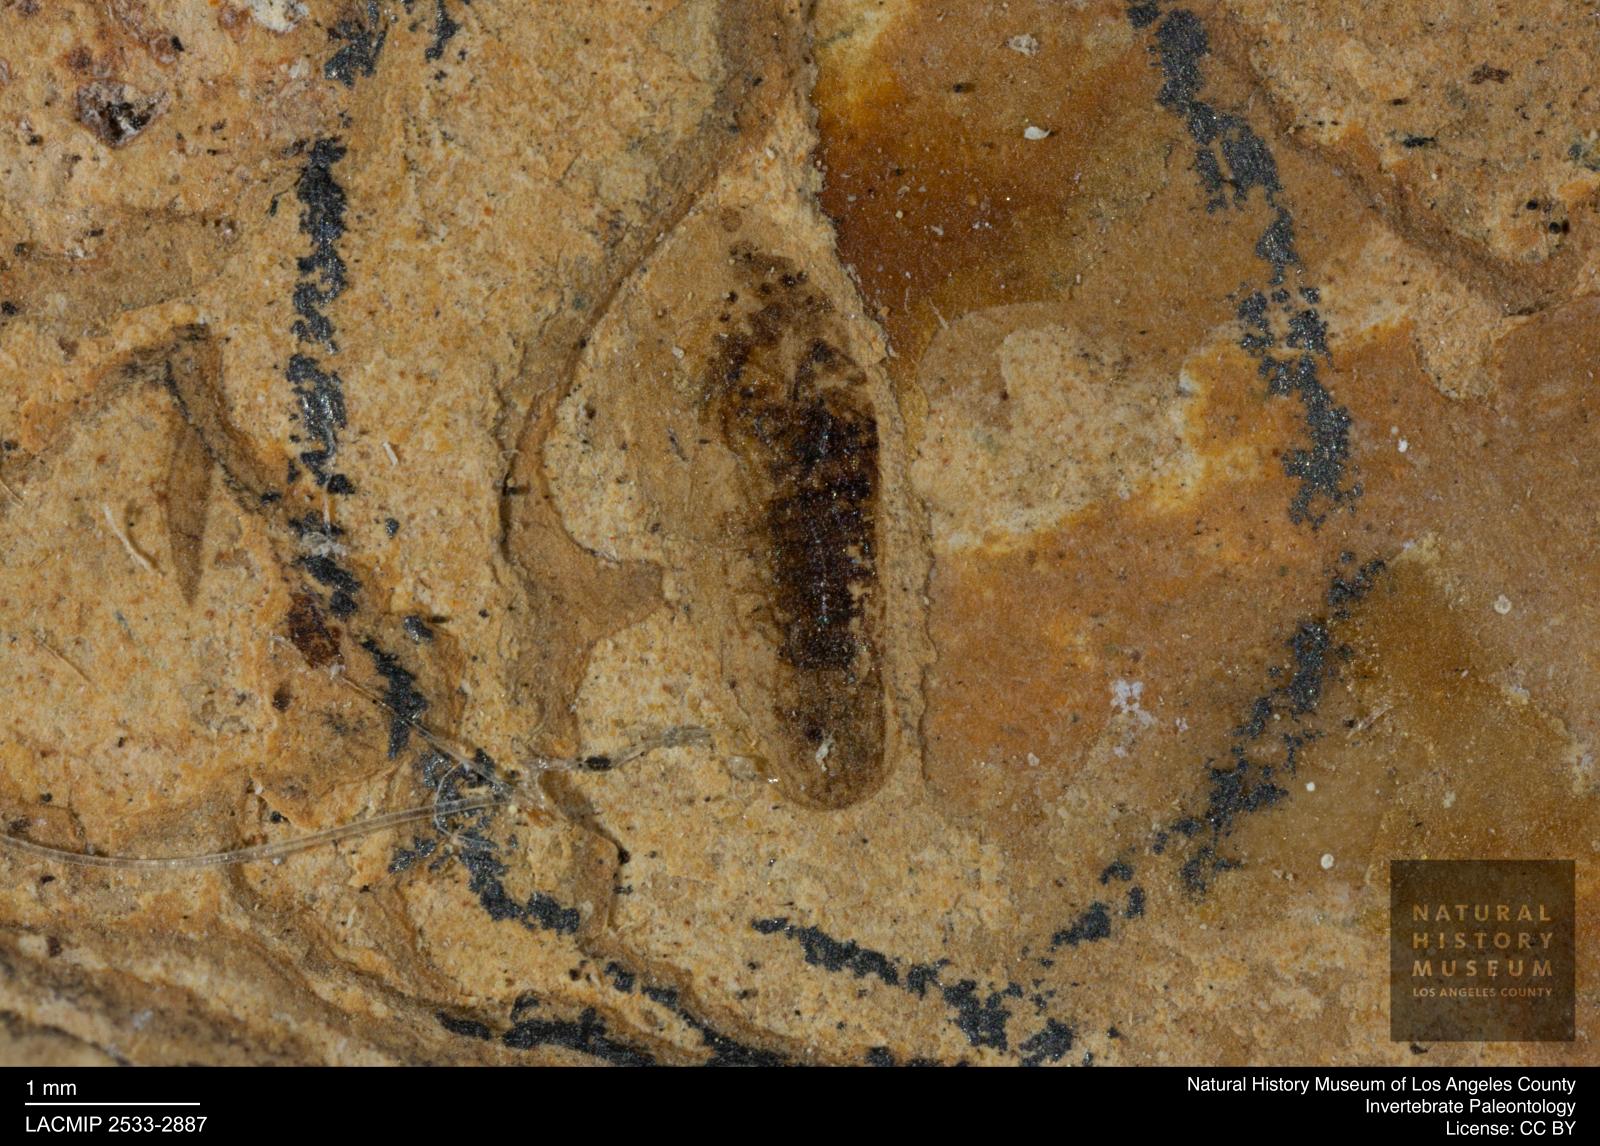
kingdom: Animalia
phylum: Arthropoda
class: Insecta
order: Hemiptera
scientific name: Hemiptera
